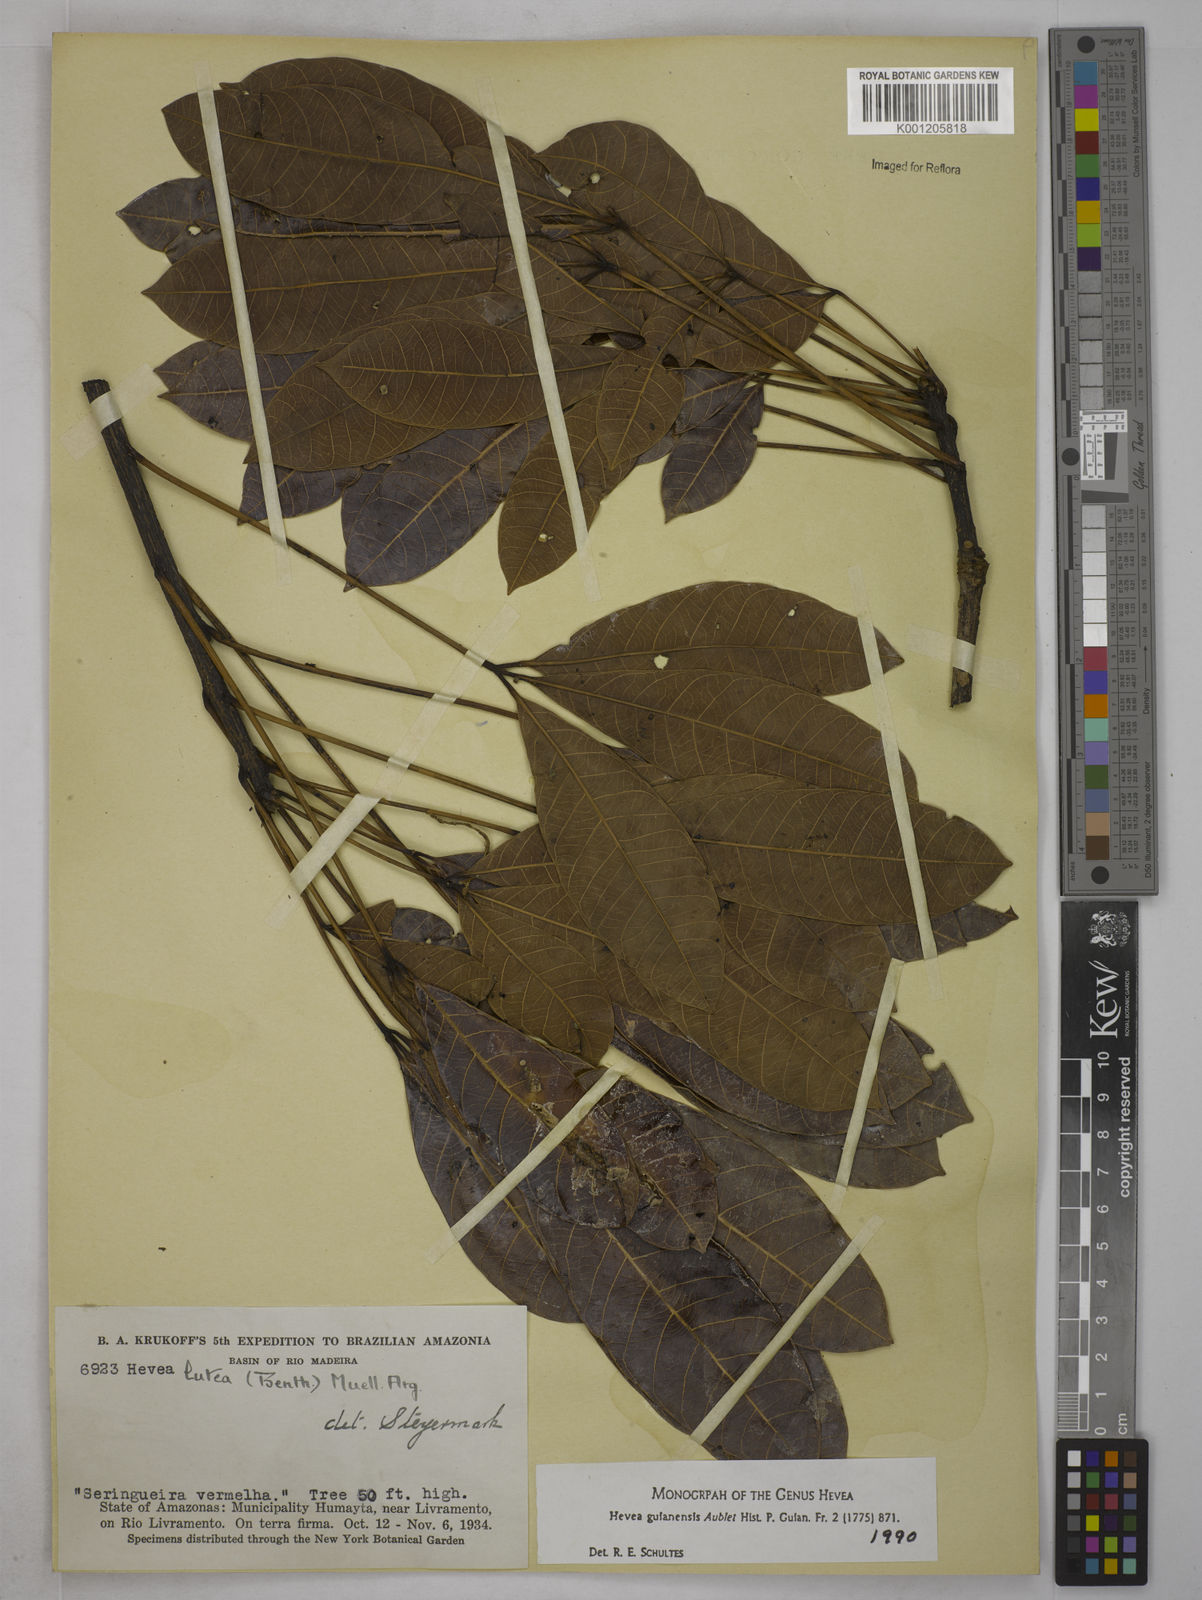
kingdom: Plantae
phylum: Tracheophyta
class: Magnoliopsida
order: Malpighiales
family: Euphorbiaceae
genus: Hevea
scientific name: Hevea guianensis
